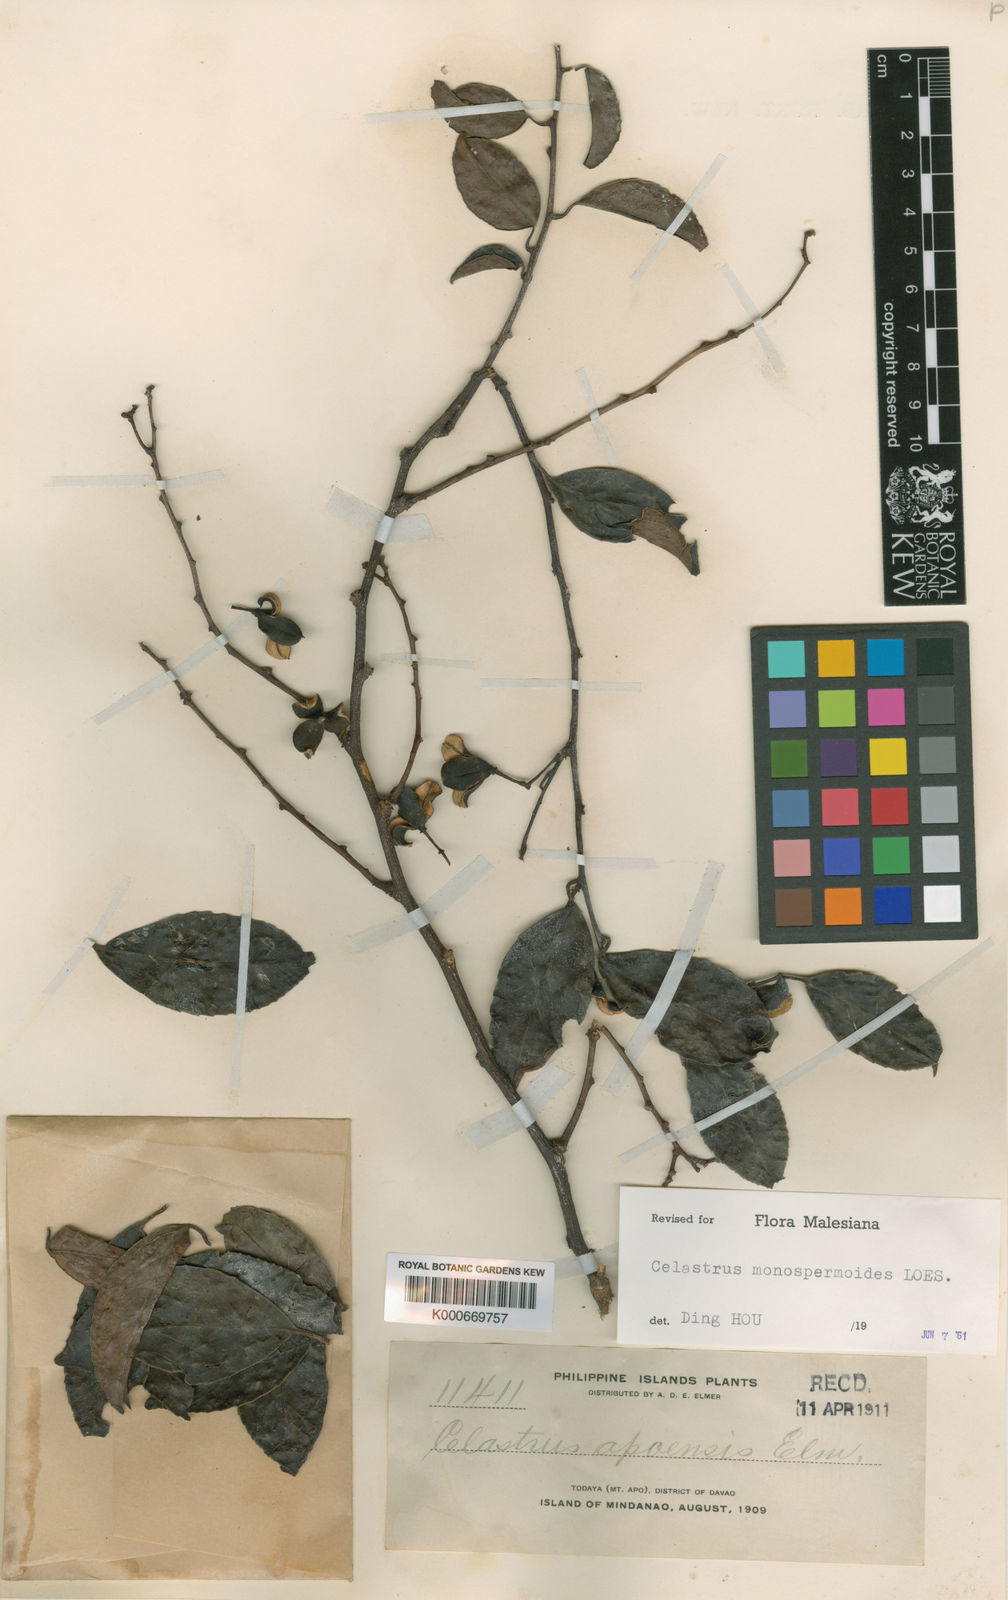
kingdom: Plantae
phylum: Tracheophyta
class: Magnoliopsida
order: Celastrales
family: Celastraceae
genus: Celastrus
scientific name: Celastrus monospermoides
